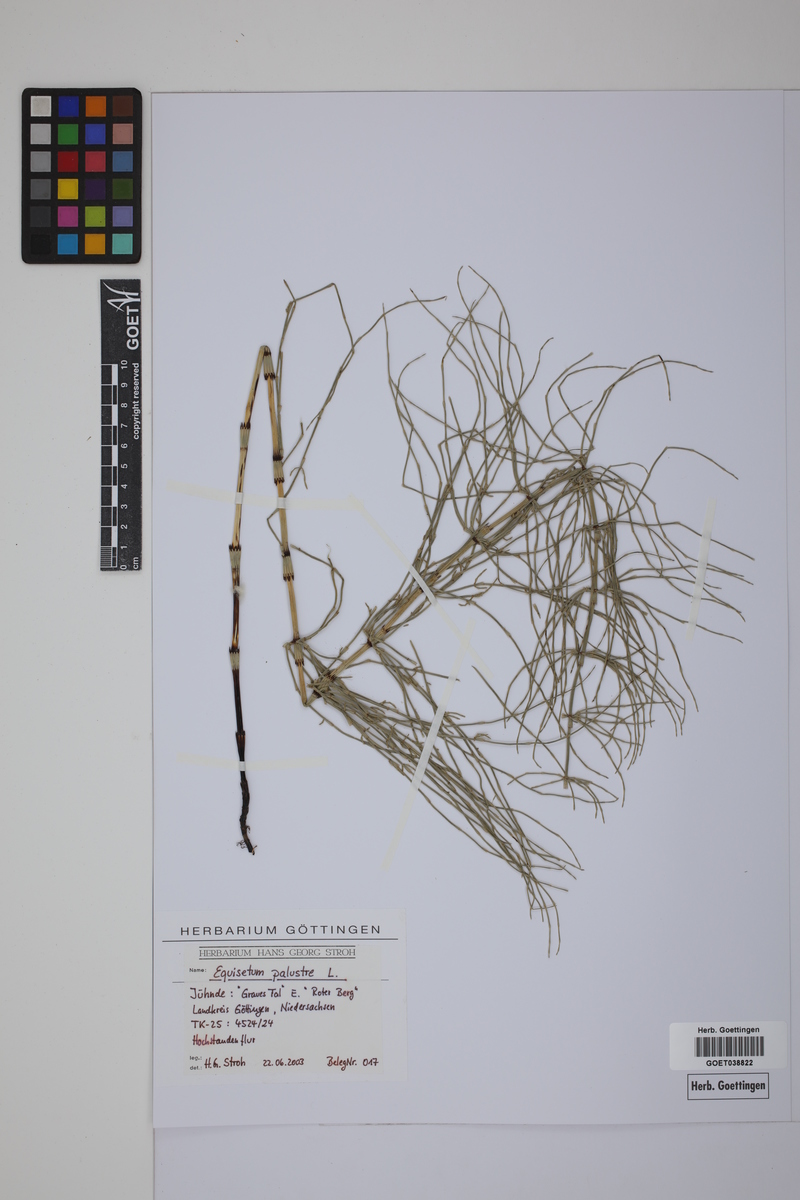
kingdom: Plantae
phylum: Tracheophyta
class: Polypodiopsida
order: Equisetales
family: Equisetaceae
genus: Equisetum
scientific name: Equisetum palustre
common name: Marsh horsetail
